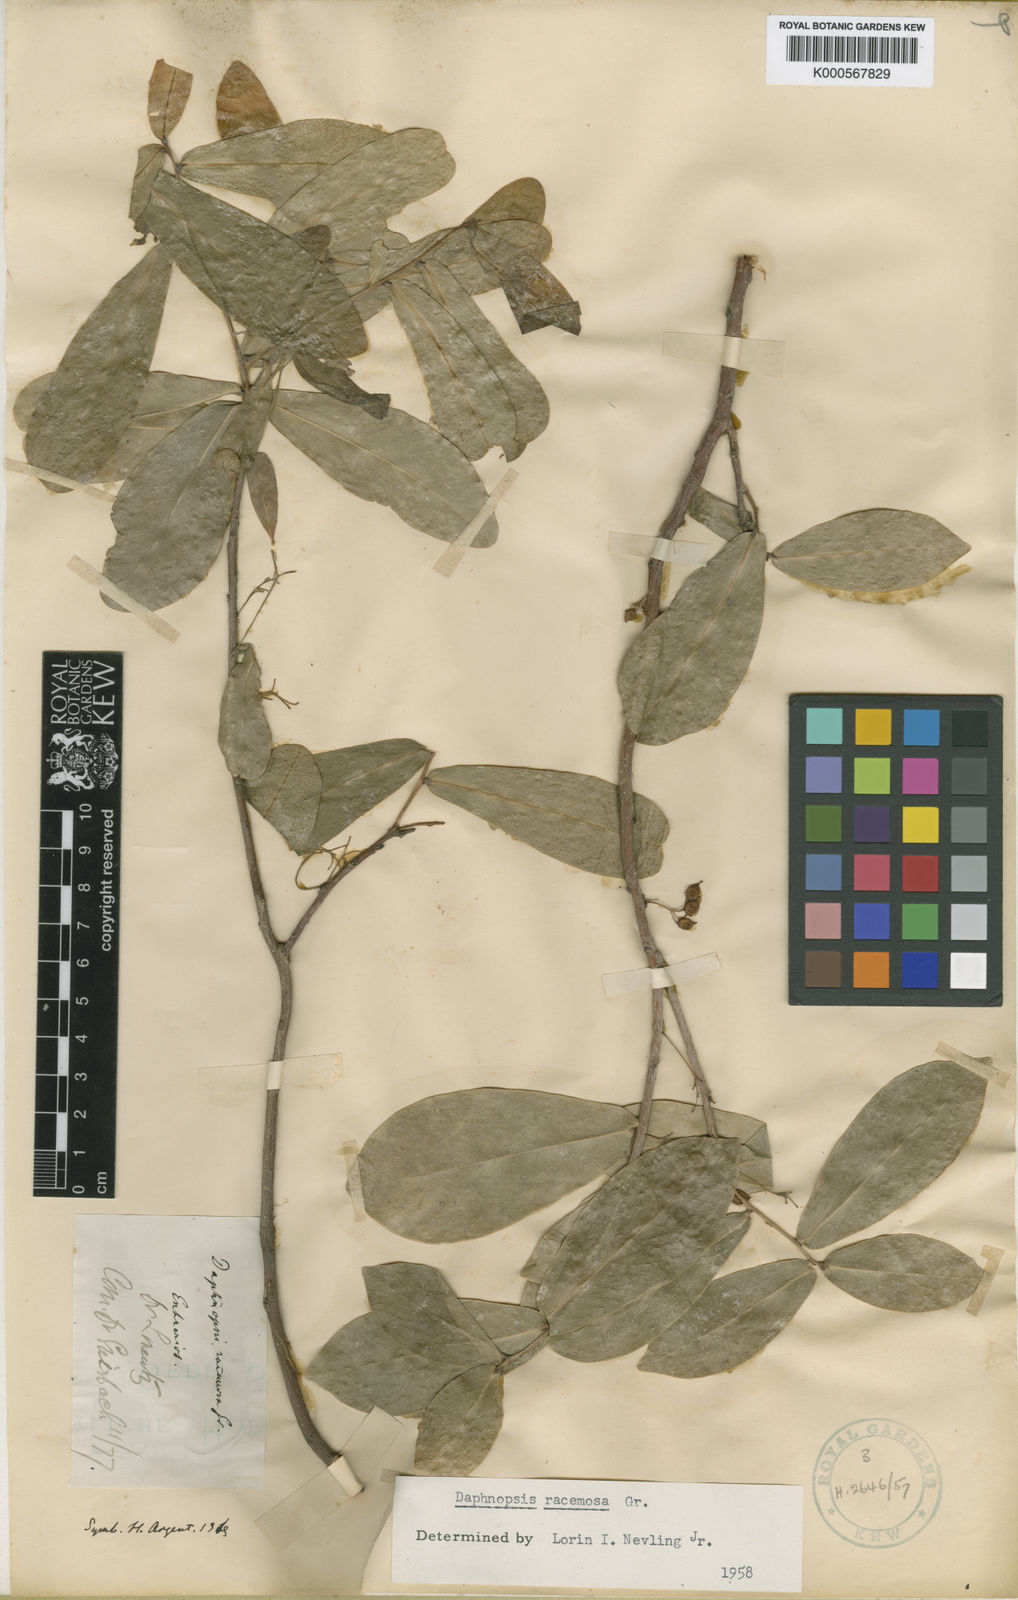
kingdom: Plantae
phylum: Tracheophyta
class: Magnoliopsida
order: Malvales
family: Thymelaeaceae
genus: Daphnopsis
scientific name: Daphnopsis racemosa
